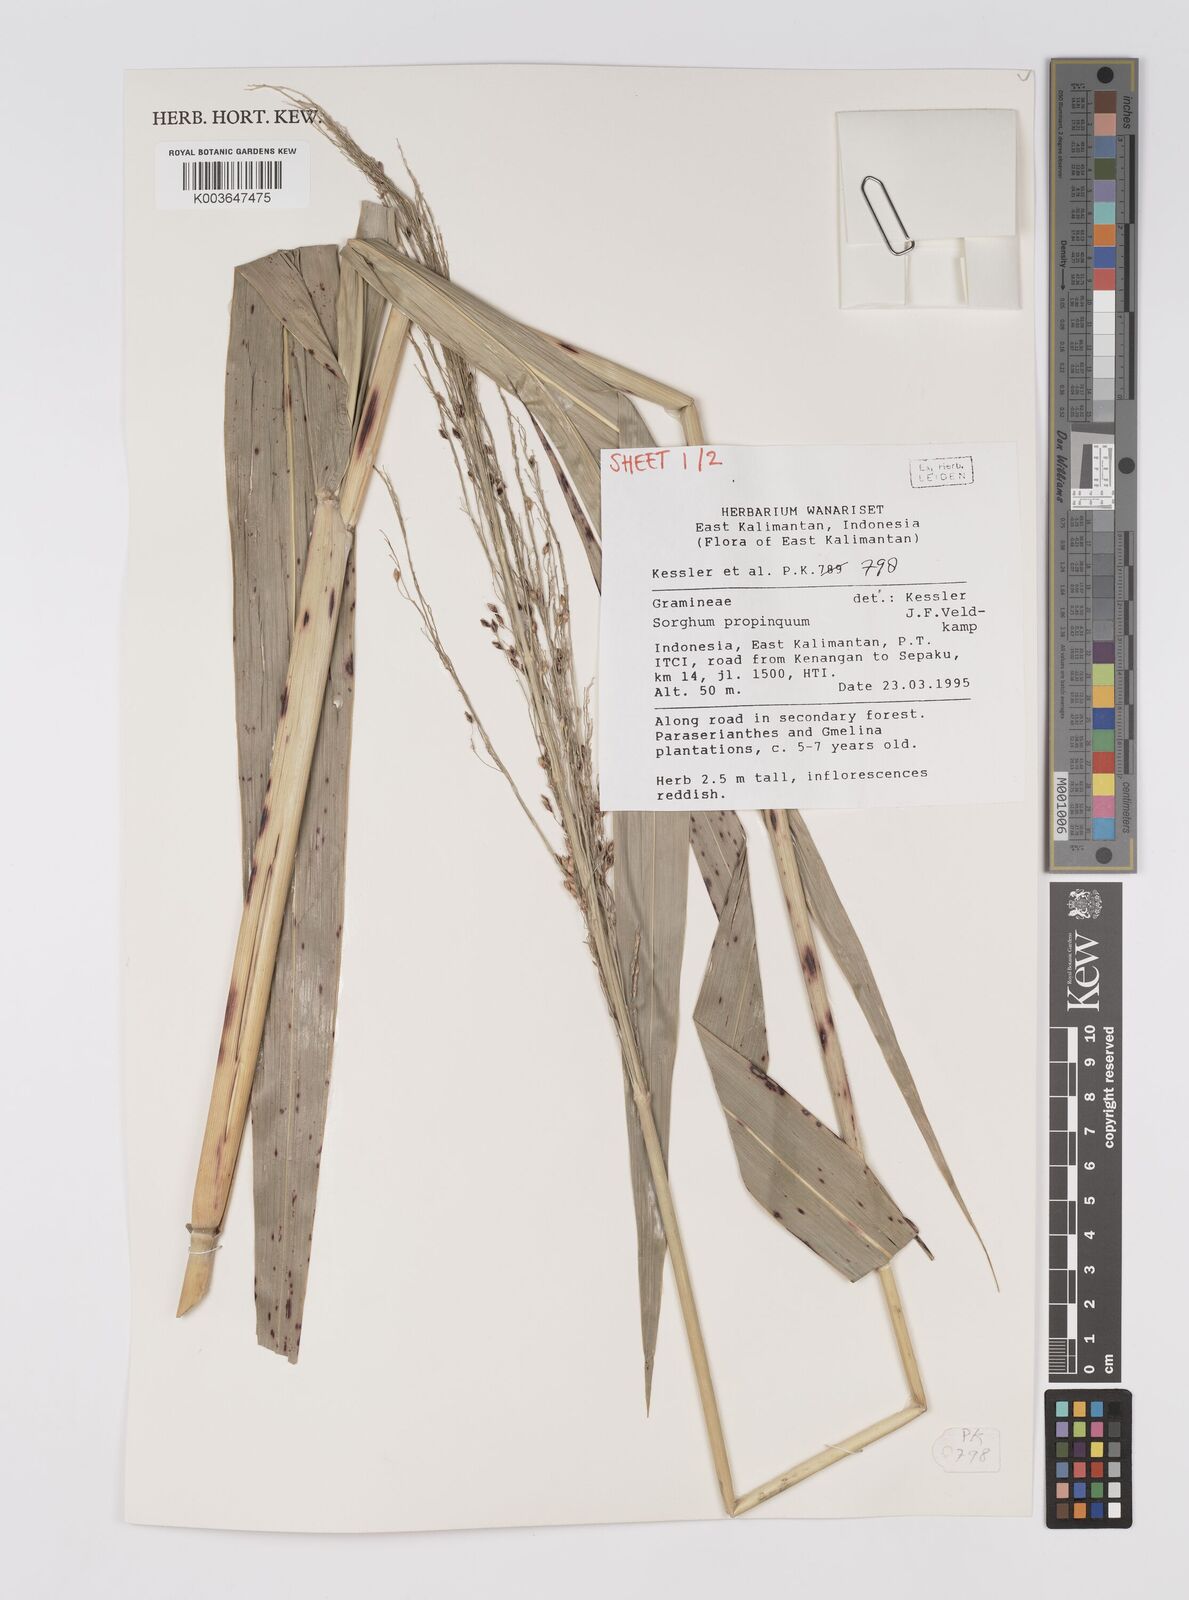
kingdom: Plantae
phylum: Tracheophyta
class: Liliopsida
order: Poales
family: Poaceae
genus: Sorghum
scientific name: Sorghum propinquum
